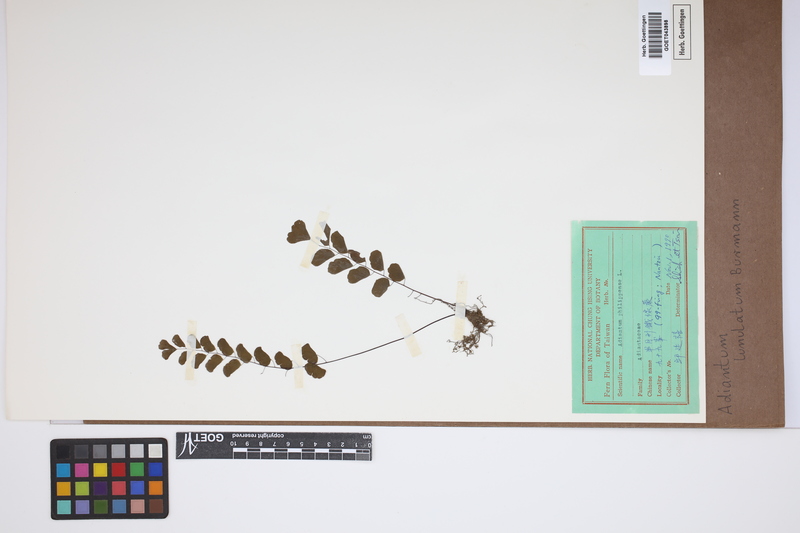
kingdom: Plantae
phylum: Tracheophyta
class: Polypodiopsida
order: Polypodiales
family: Pteridaceae
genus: Adiantum
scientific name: Adiantum philippense
